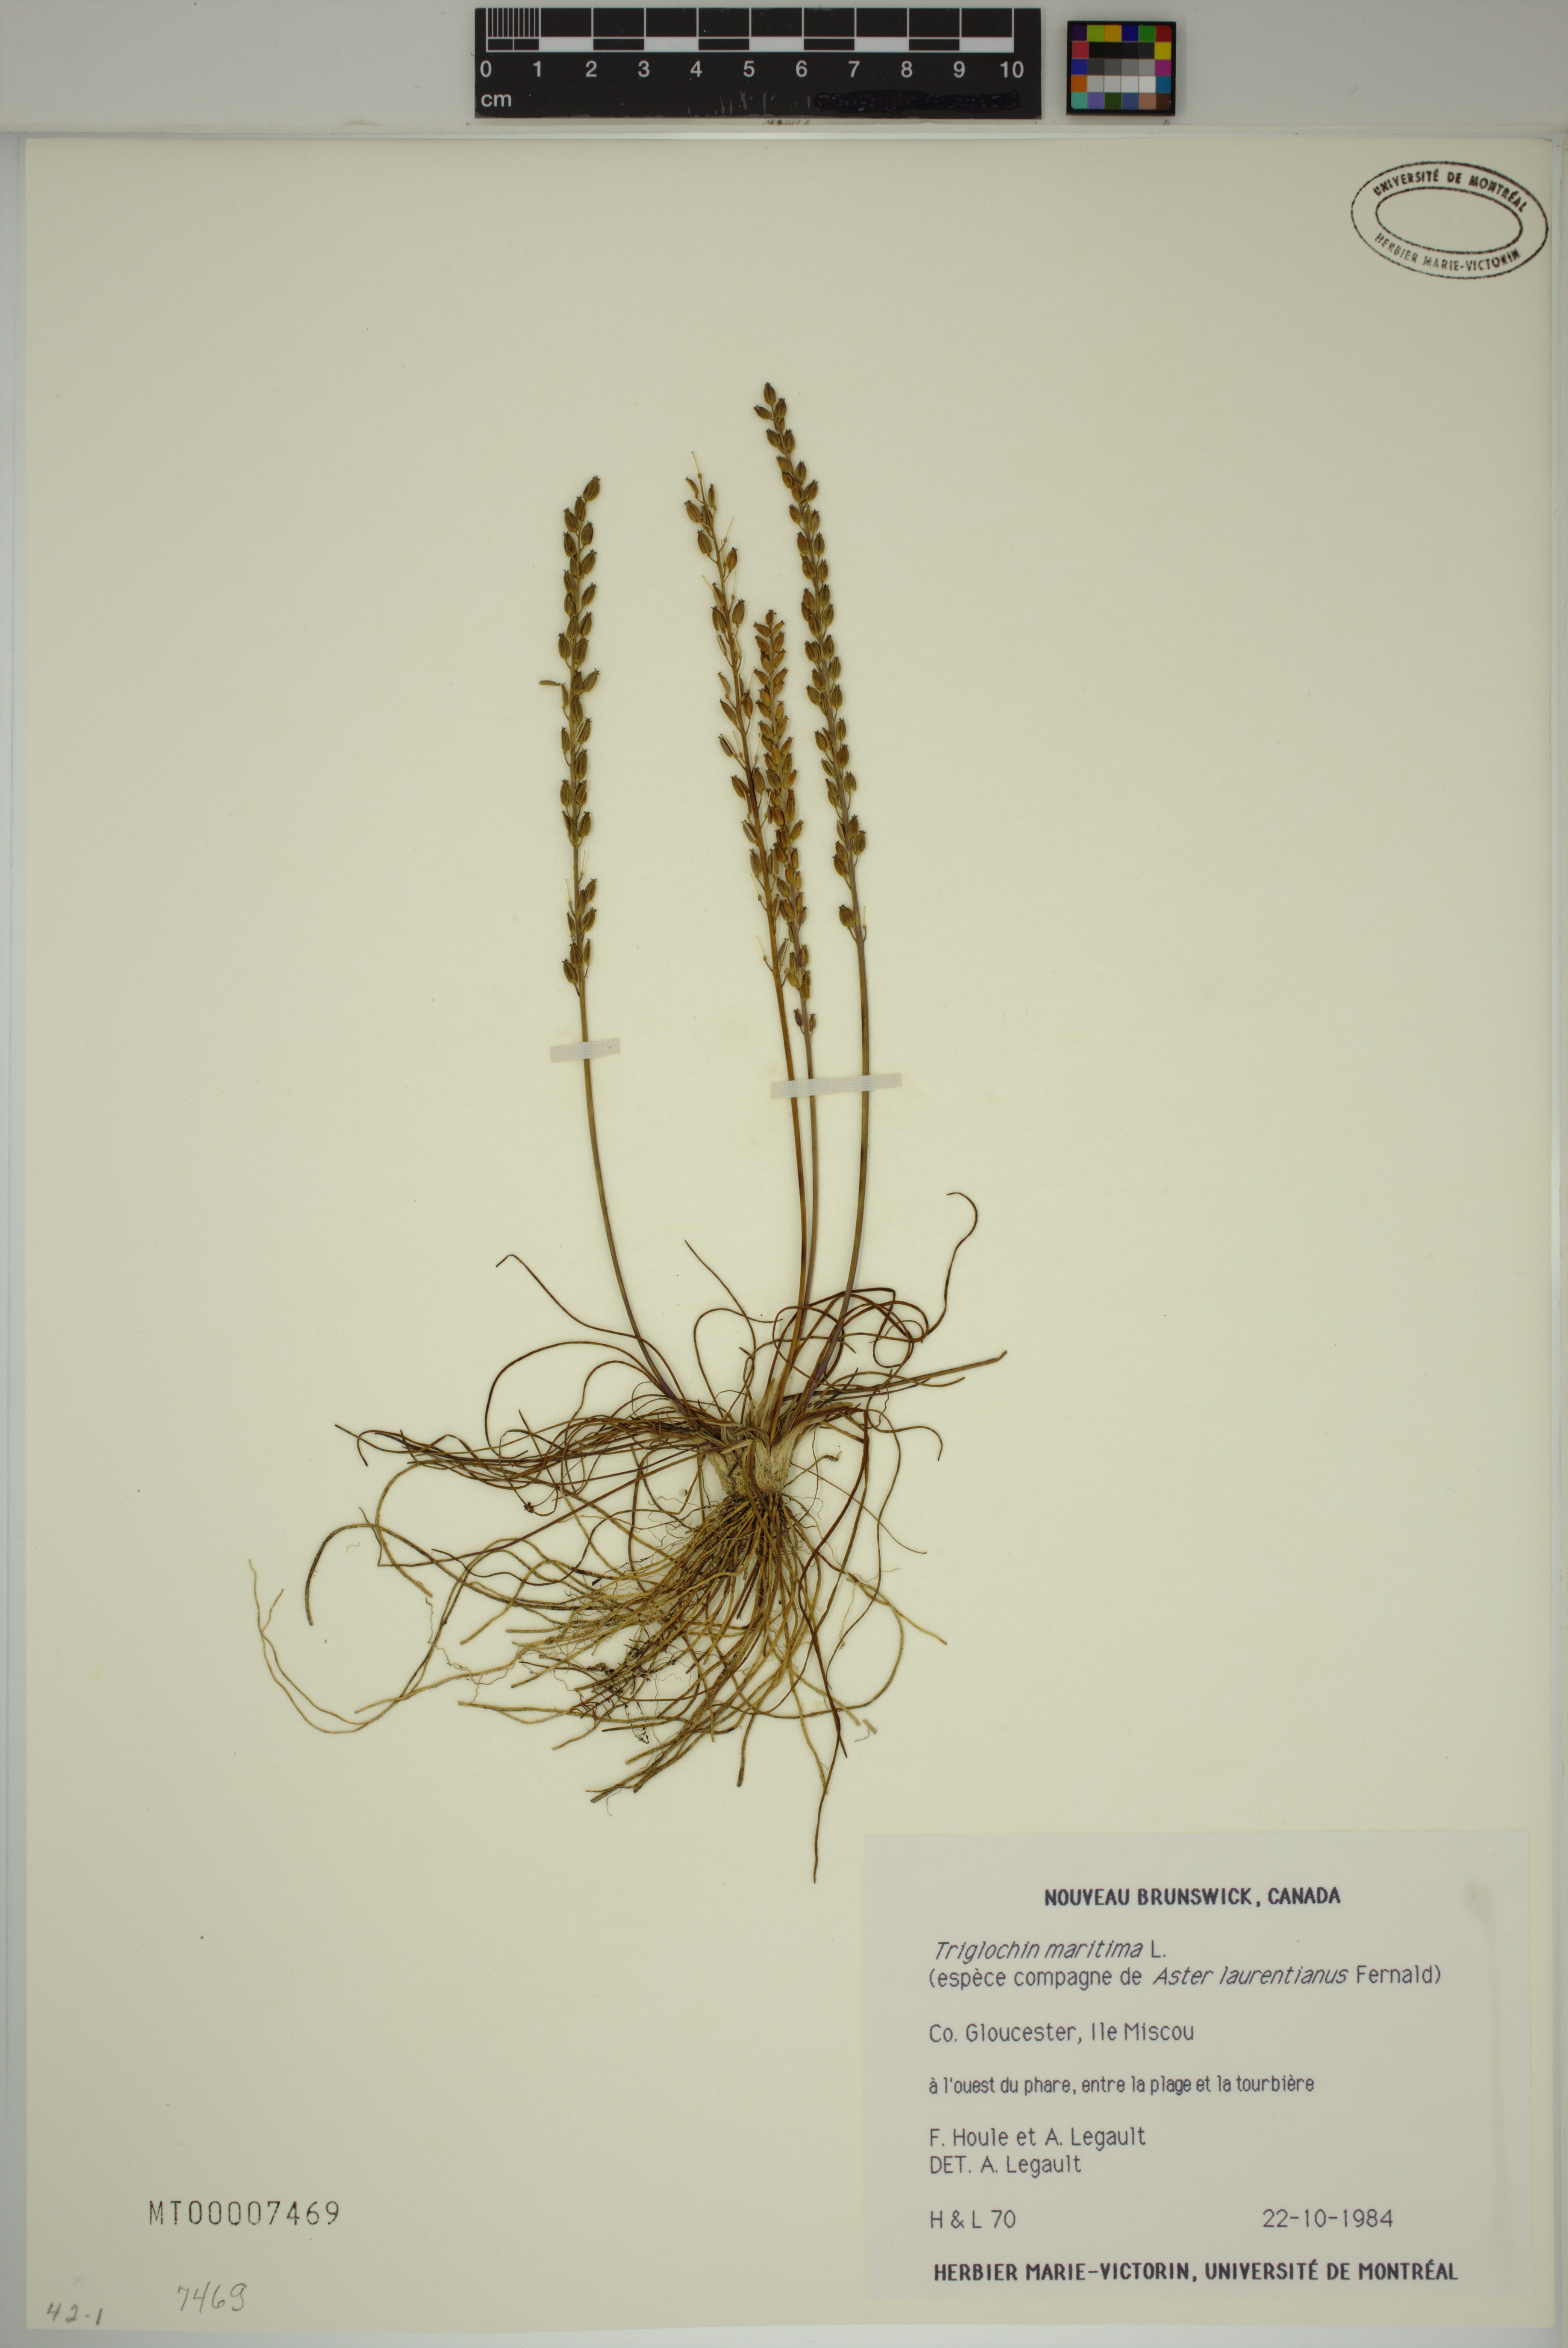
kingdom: Plantae
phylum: Tracheophyta
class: Liliopsida
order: Alismatales
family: Juncaginaceae
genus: Triglochin
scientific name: Triglochin maritima
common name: Sea arrowgrass
